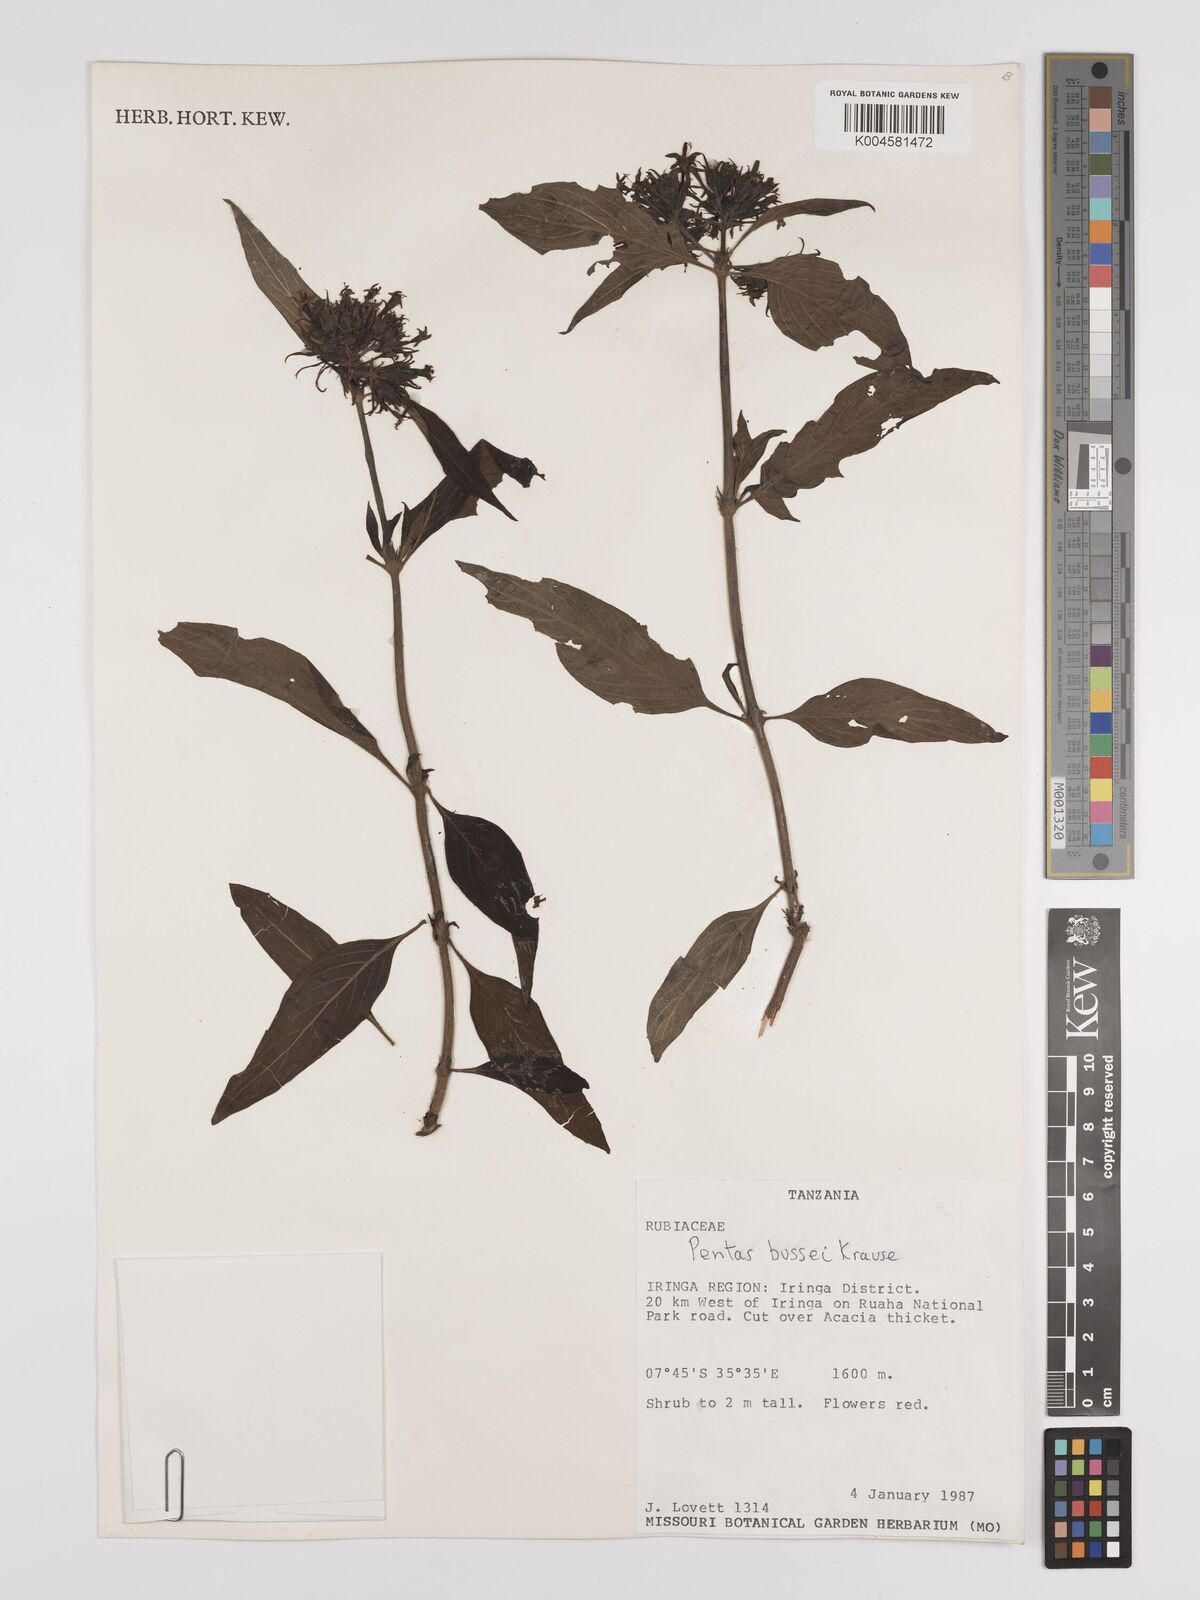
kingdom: Plantae
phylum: Tracheophyta
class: Magnoliopsida
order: Gentianales
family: Rubiaceae
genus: Rhodopentas
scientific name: Rhodopentas bussei
